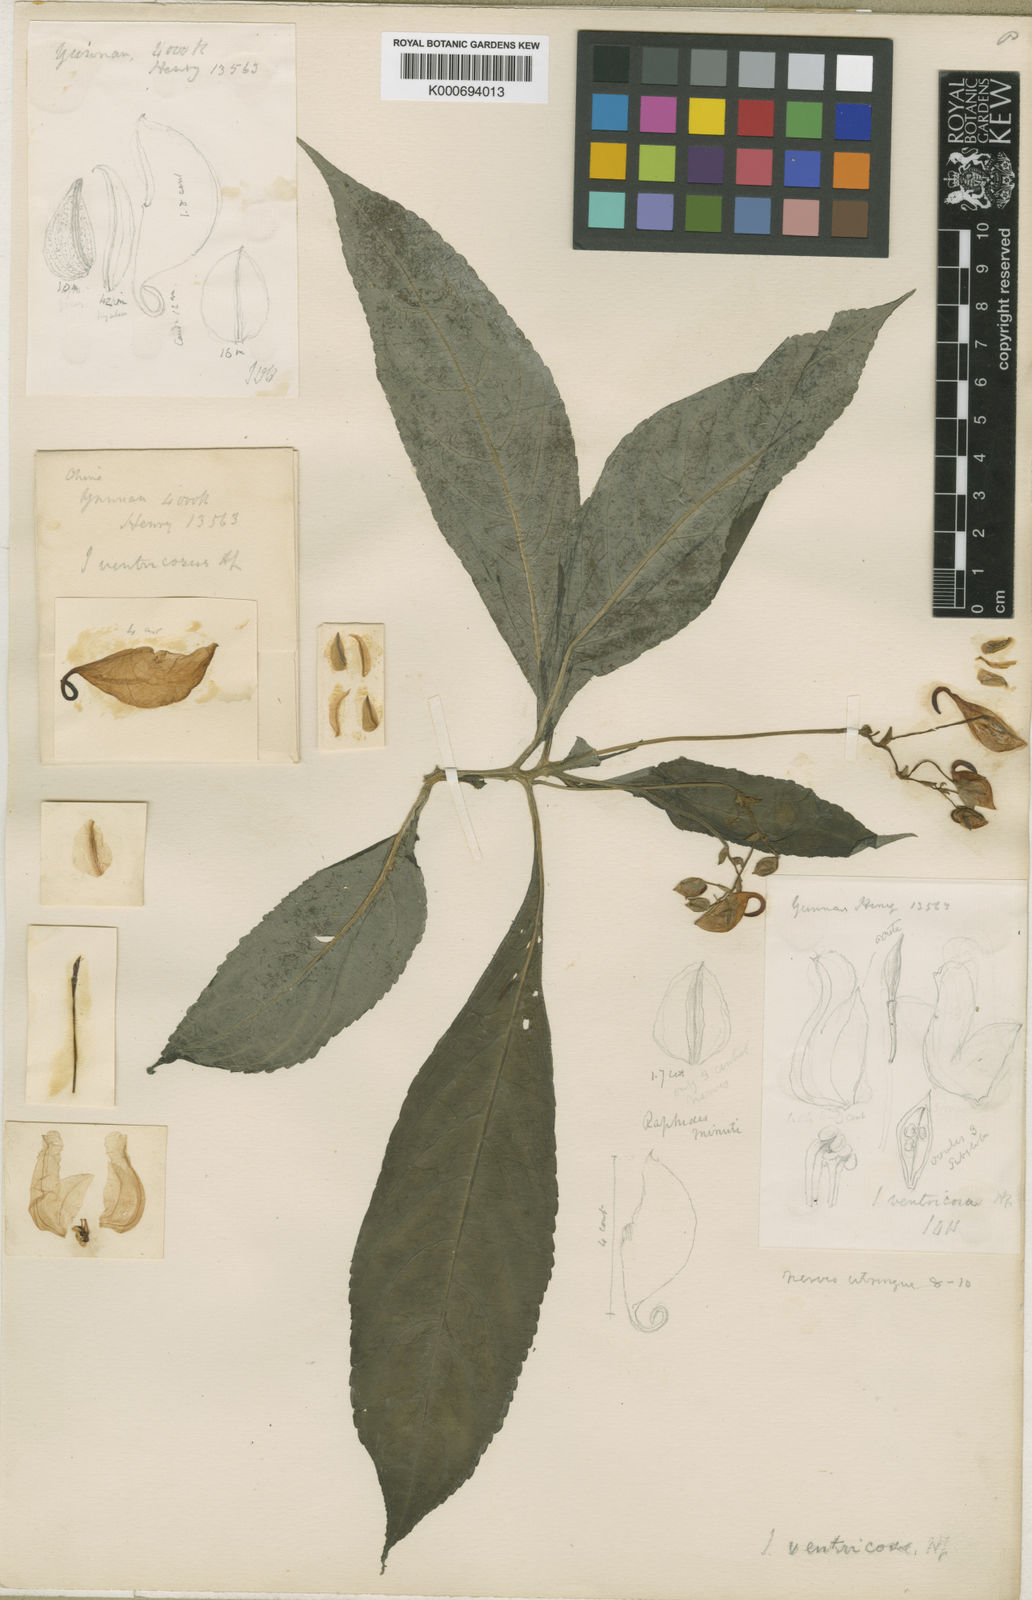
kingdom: Plantae
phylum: Tracheophyta
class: Magnoliopsida
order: Ericales
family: Balsaminaceae
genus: Impatiens
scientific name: Impatiens
